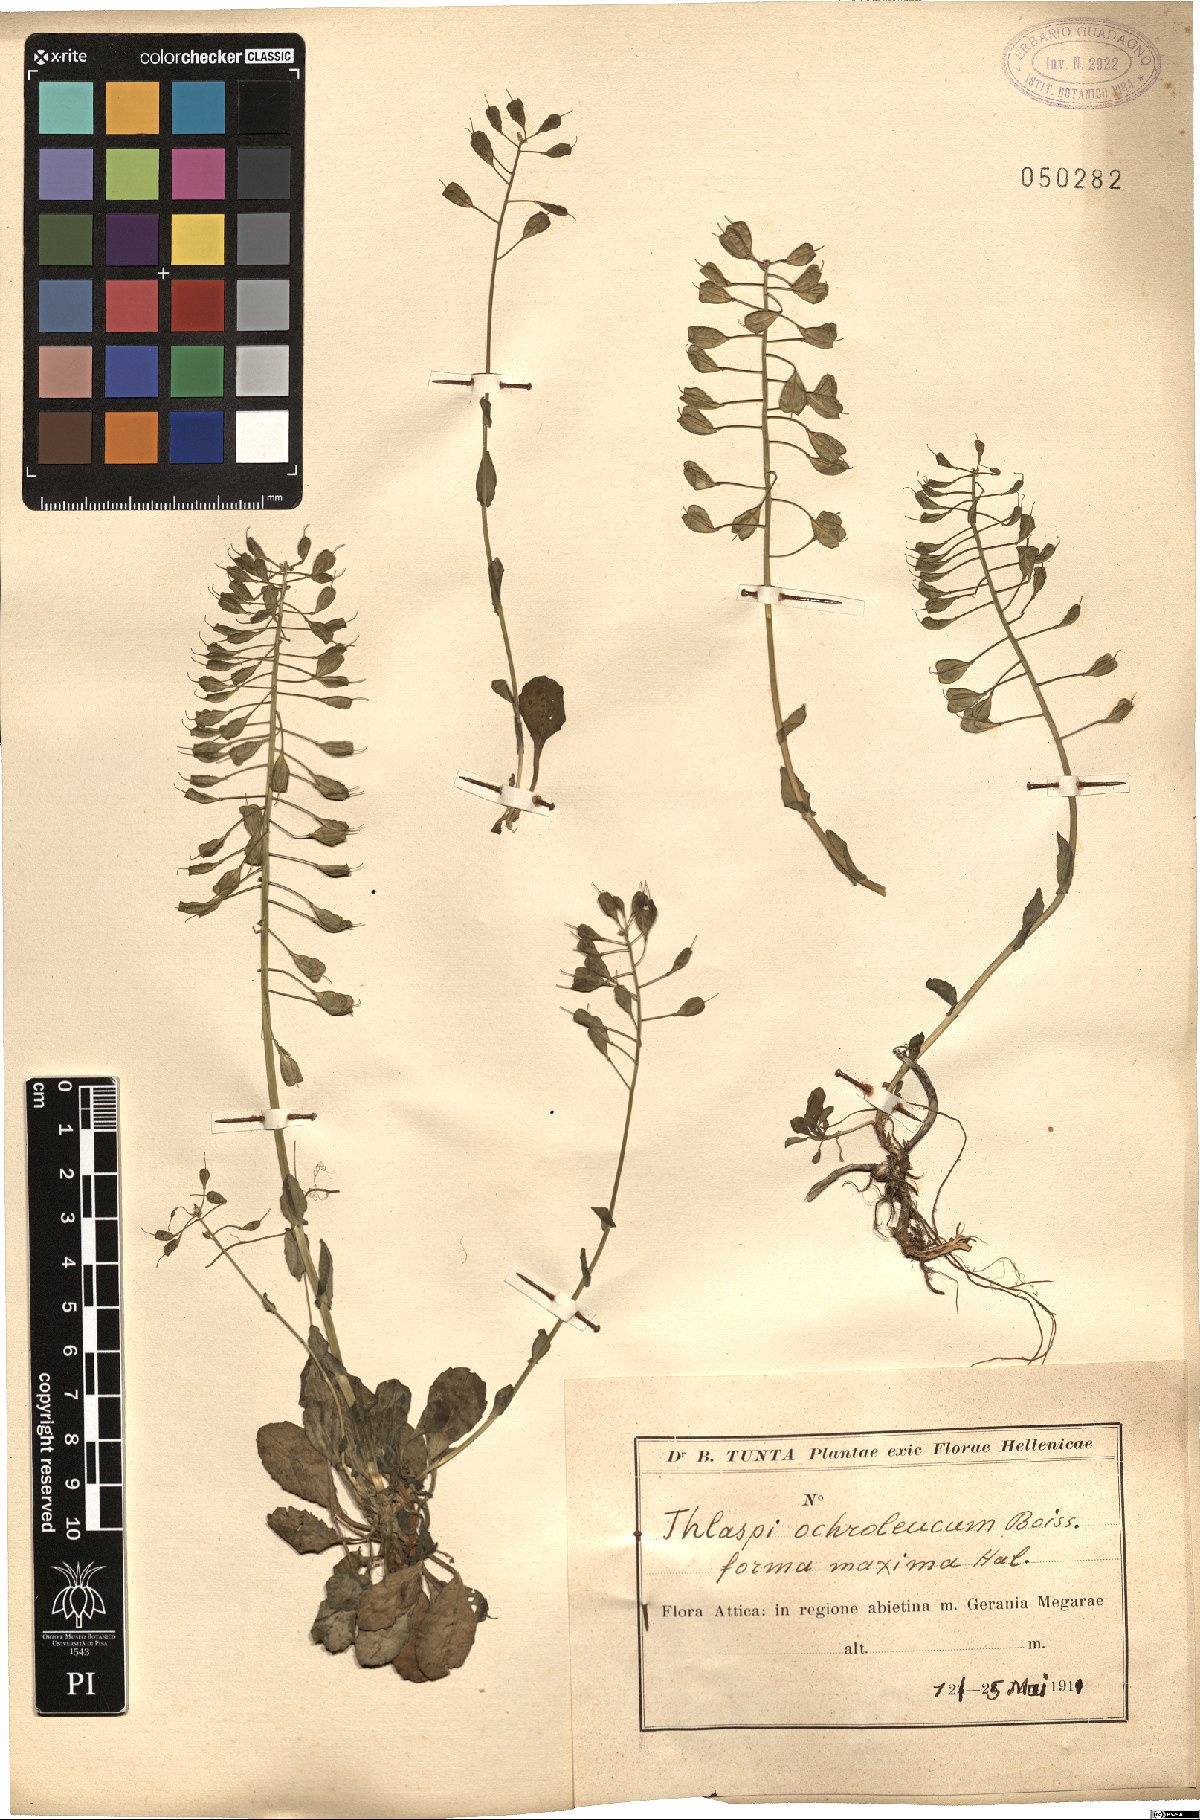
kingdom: Plantae
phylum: Tracheophyta
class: Magnoliopsida
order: Brassicales
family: Brassicaceae
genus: Noccaea
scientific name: Noccaea ochroleuca
